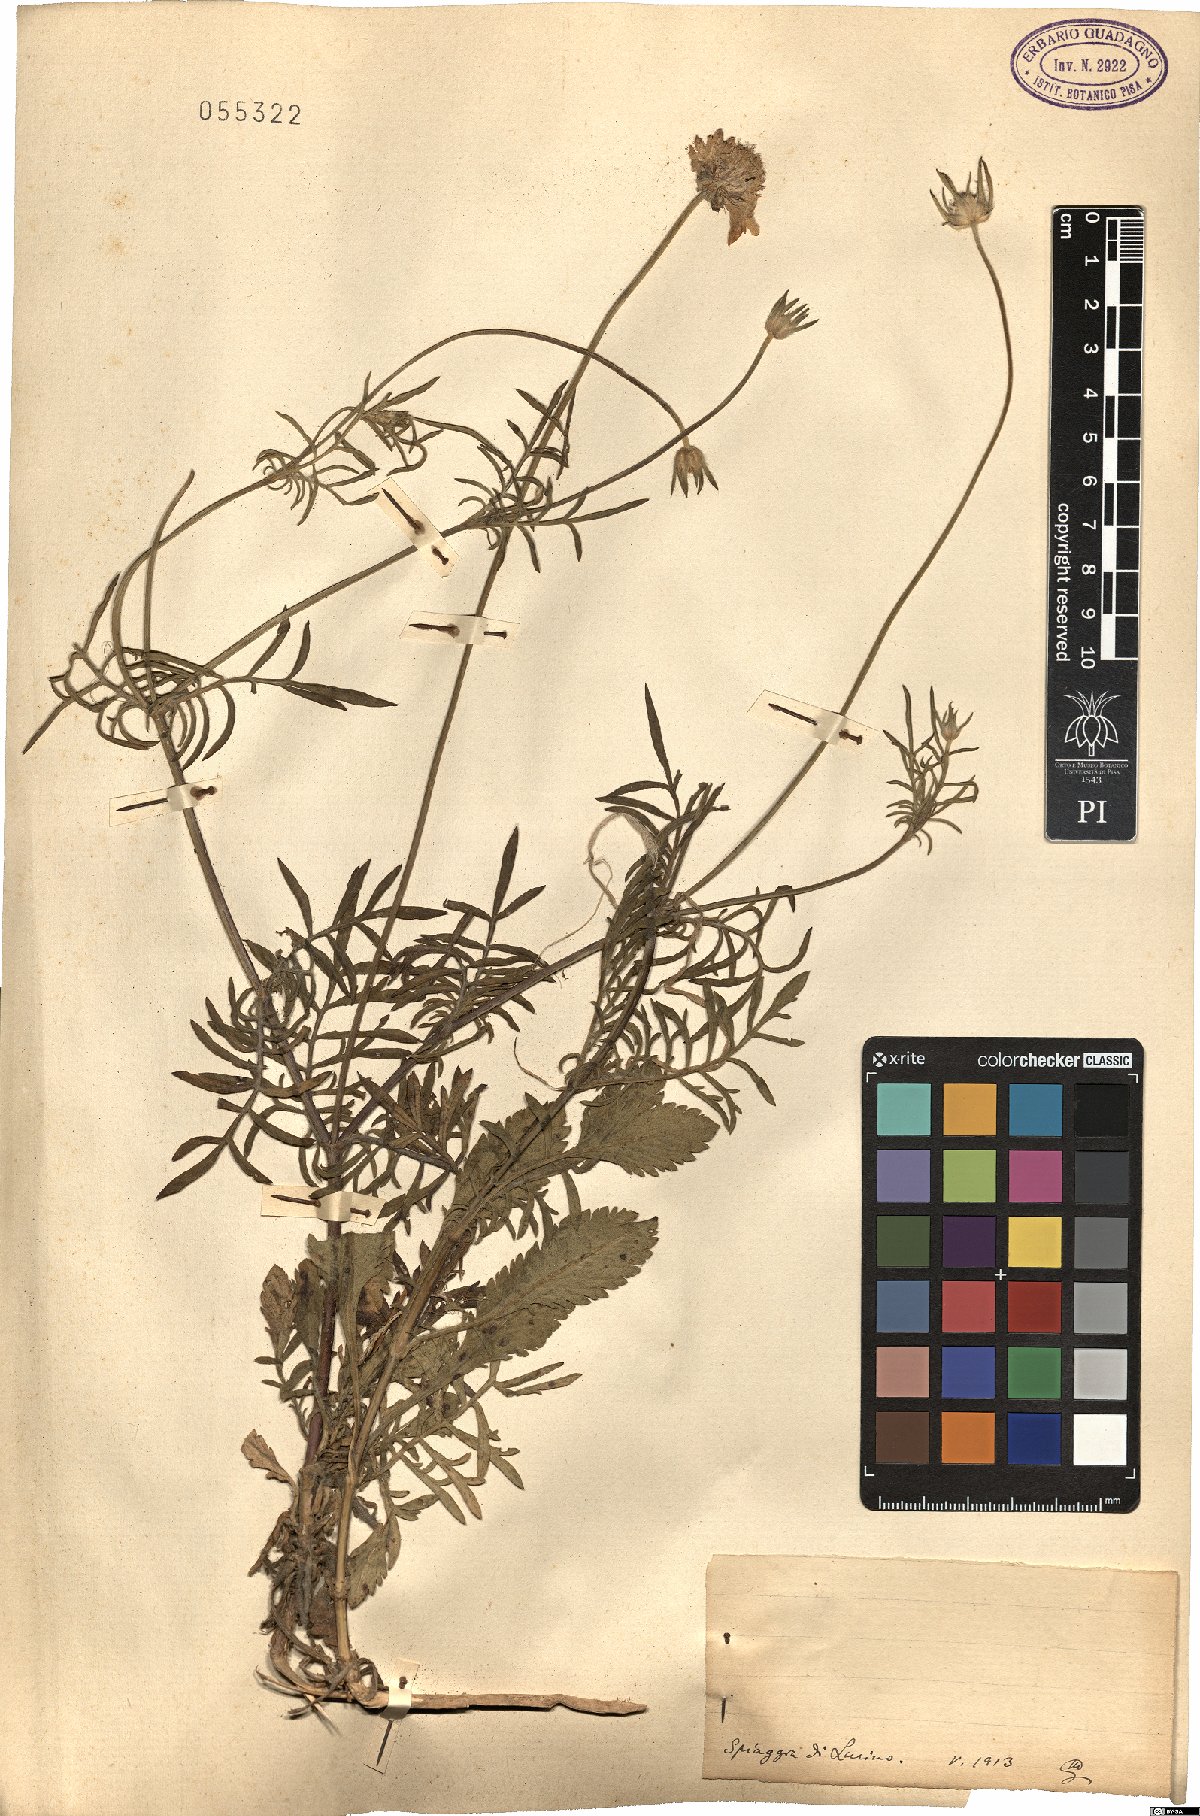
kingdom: Plantae
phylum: Tracheophyta
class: Magnoliopsida
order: Dipsacales
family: Caprifoliaceae
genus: Scabiosa
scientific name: Scabiosa
